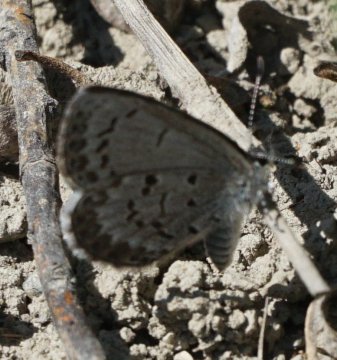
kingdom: Animalia
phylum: Arthropoda
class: Insecta
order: Lepidoptera
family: Lycaenidae
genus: Celastrina
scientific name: Celastrina lucia
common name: Northern Spring Azure
